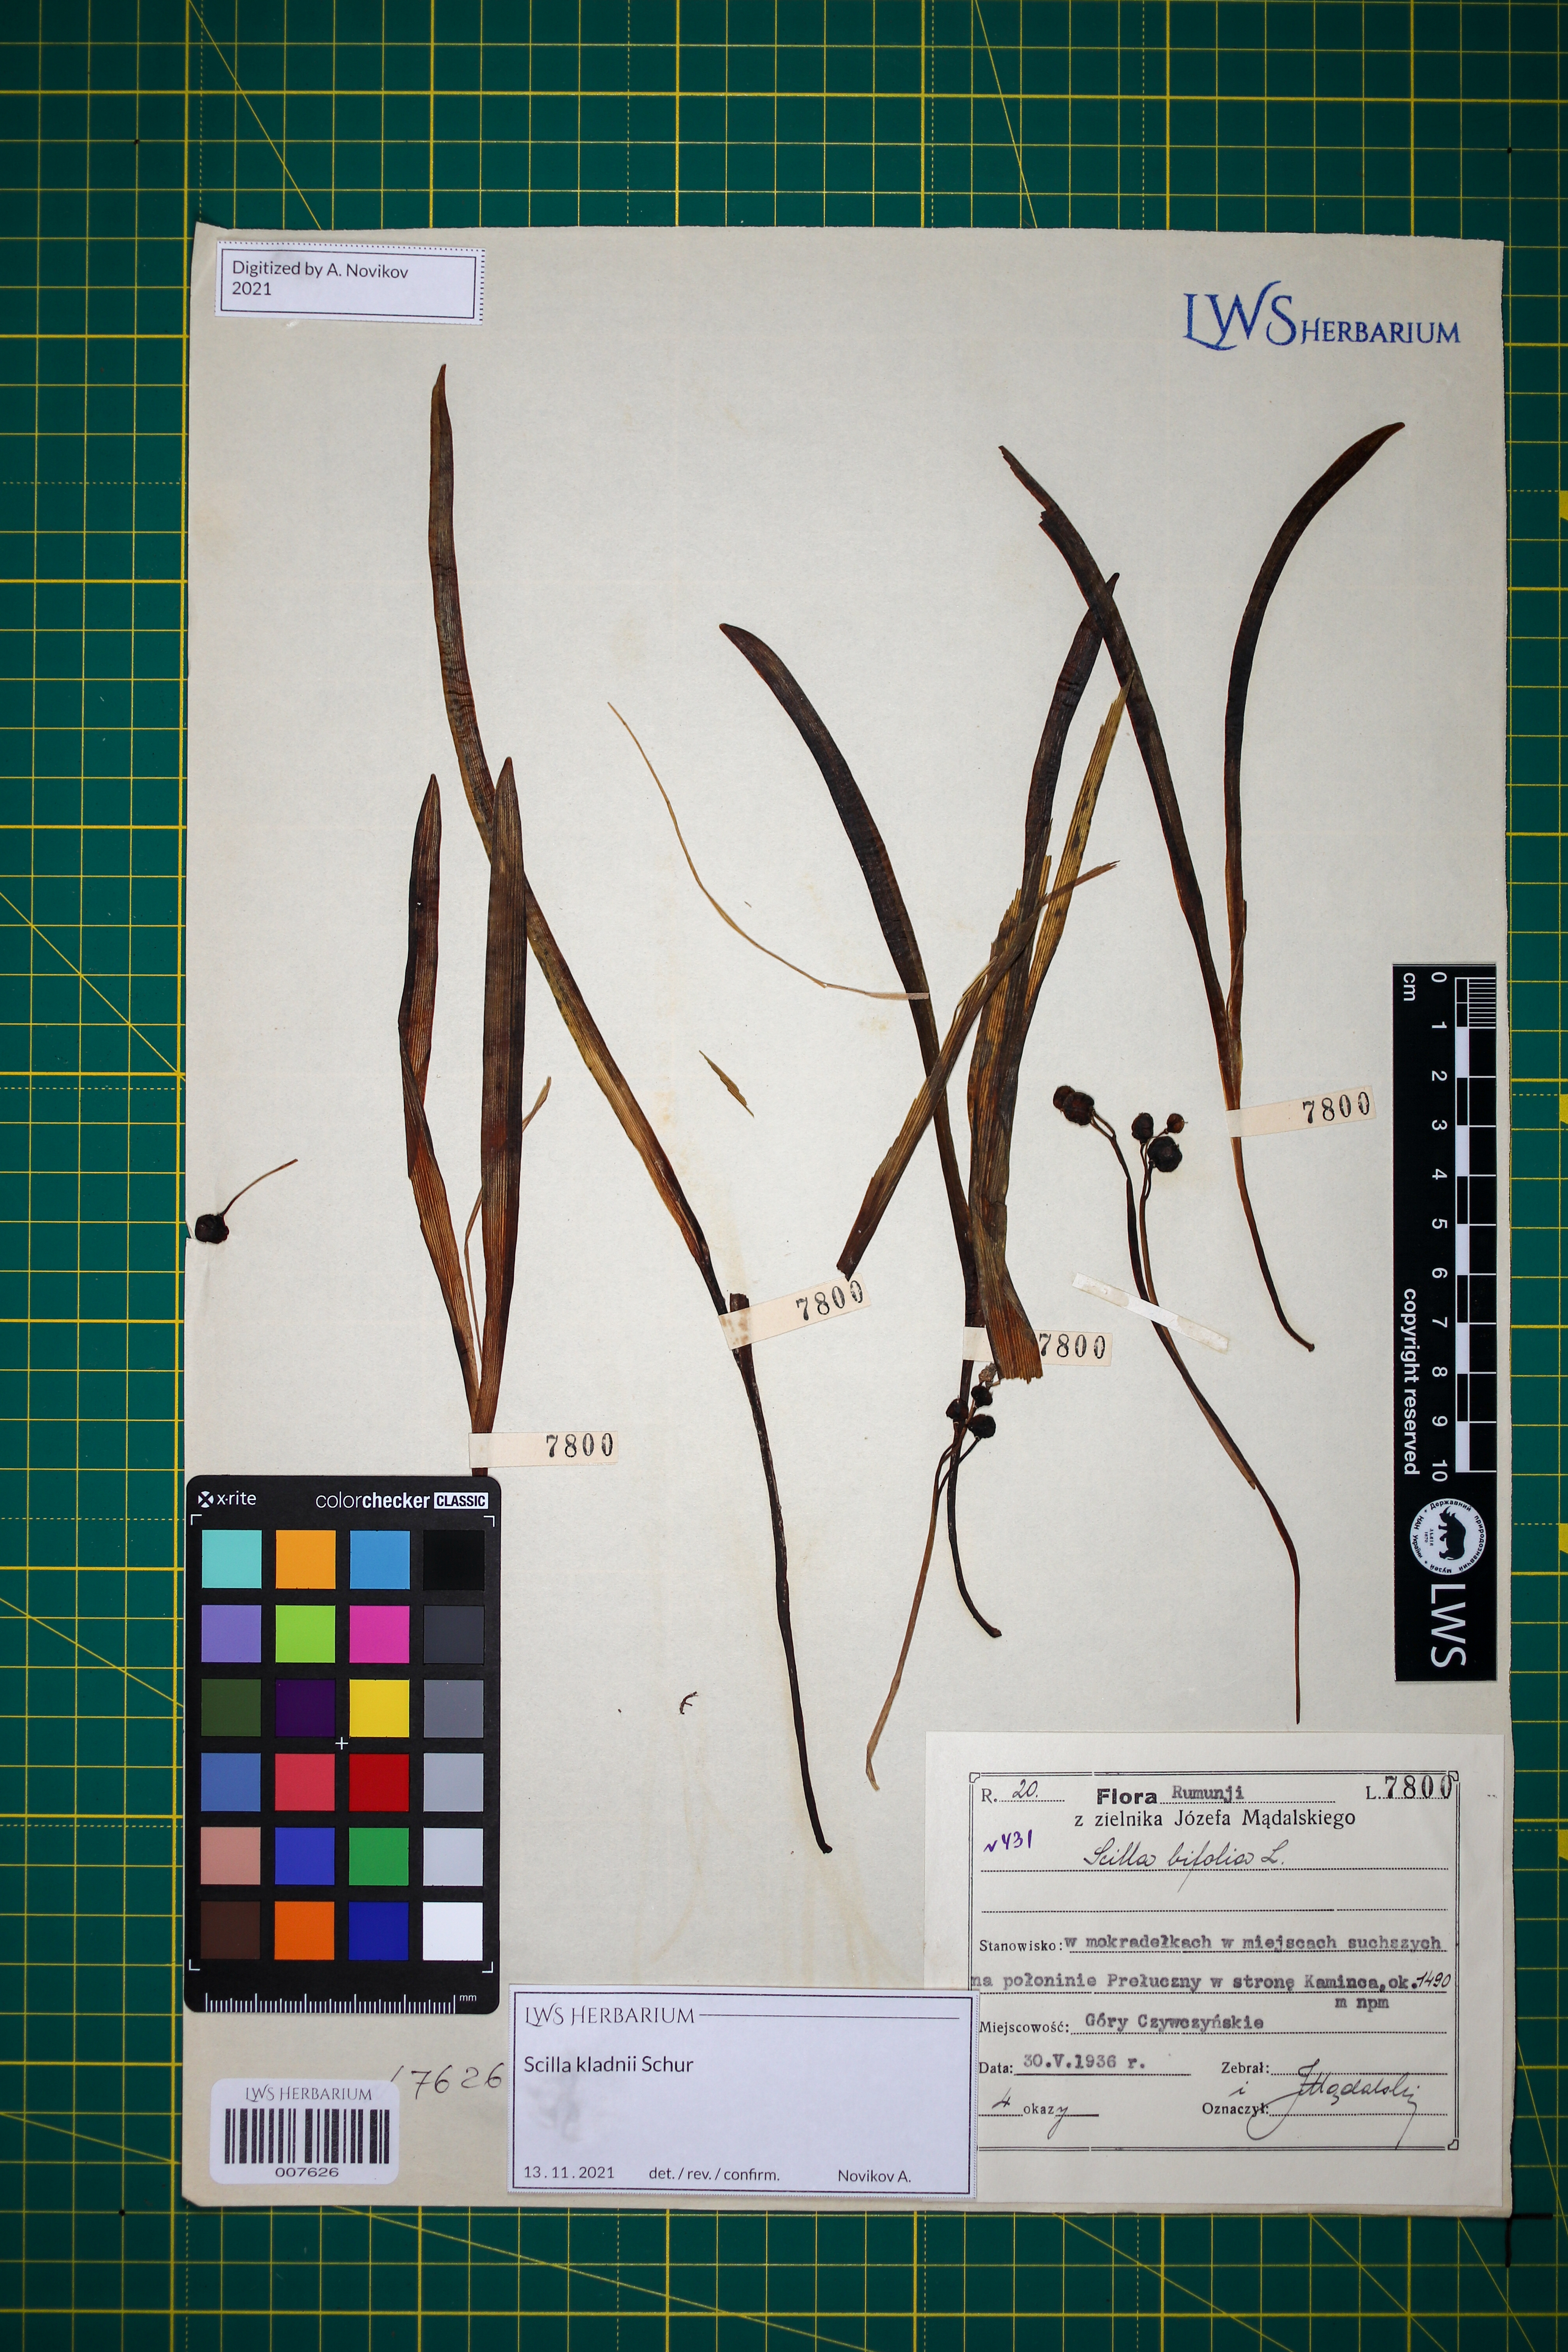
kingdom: Plantae
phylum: Tracheophyta
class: Liliopsida
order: Asparagales
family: Asparagaceae
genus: Scilla
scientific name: Scilla kladnii
